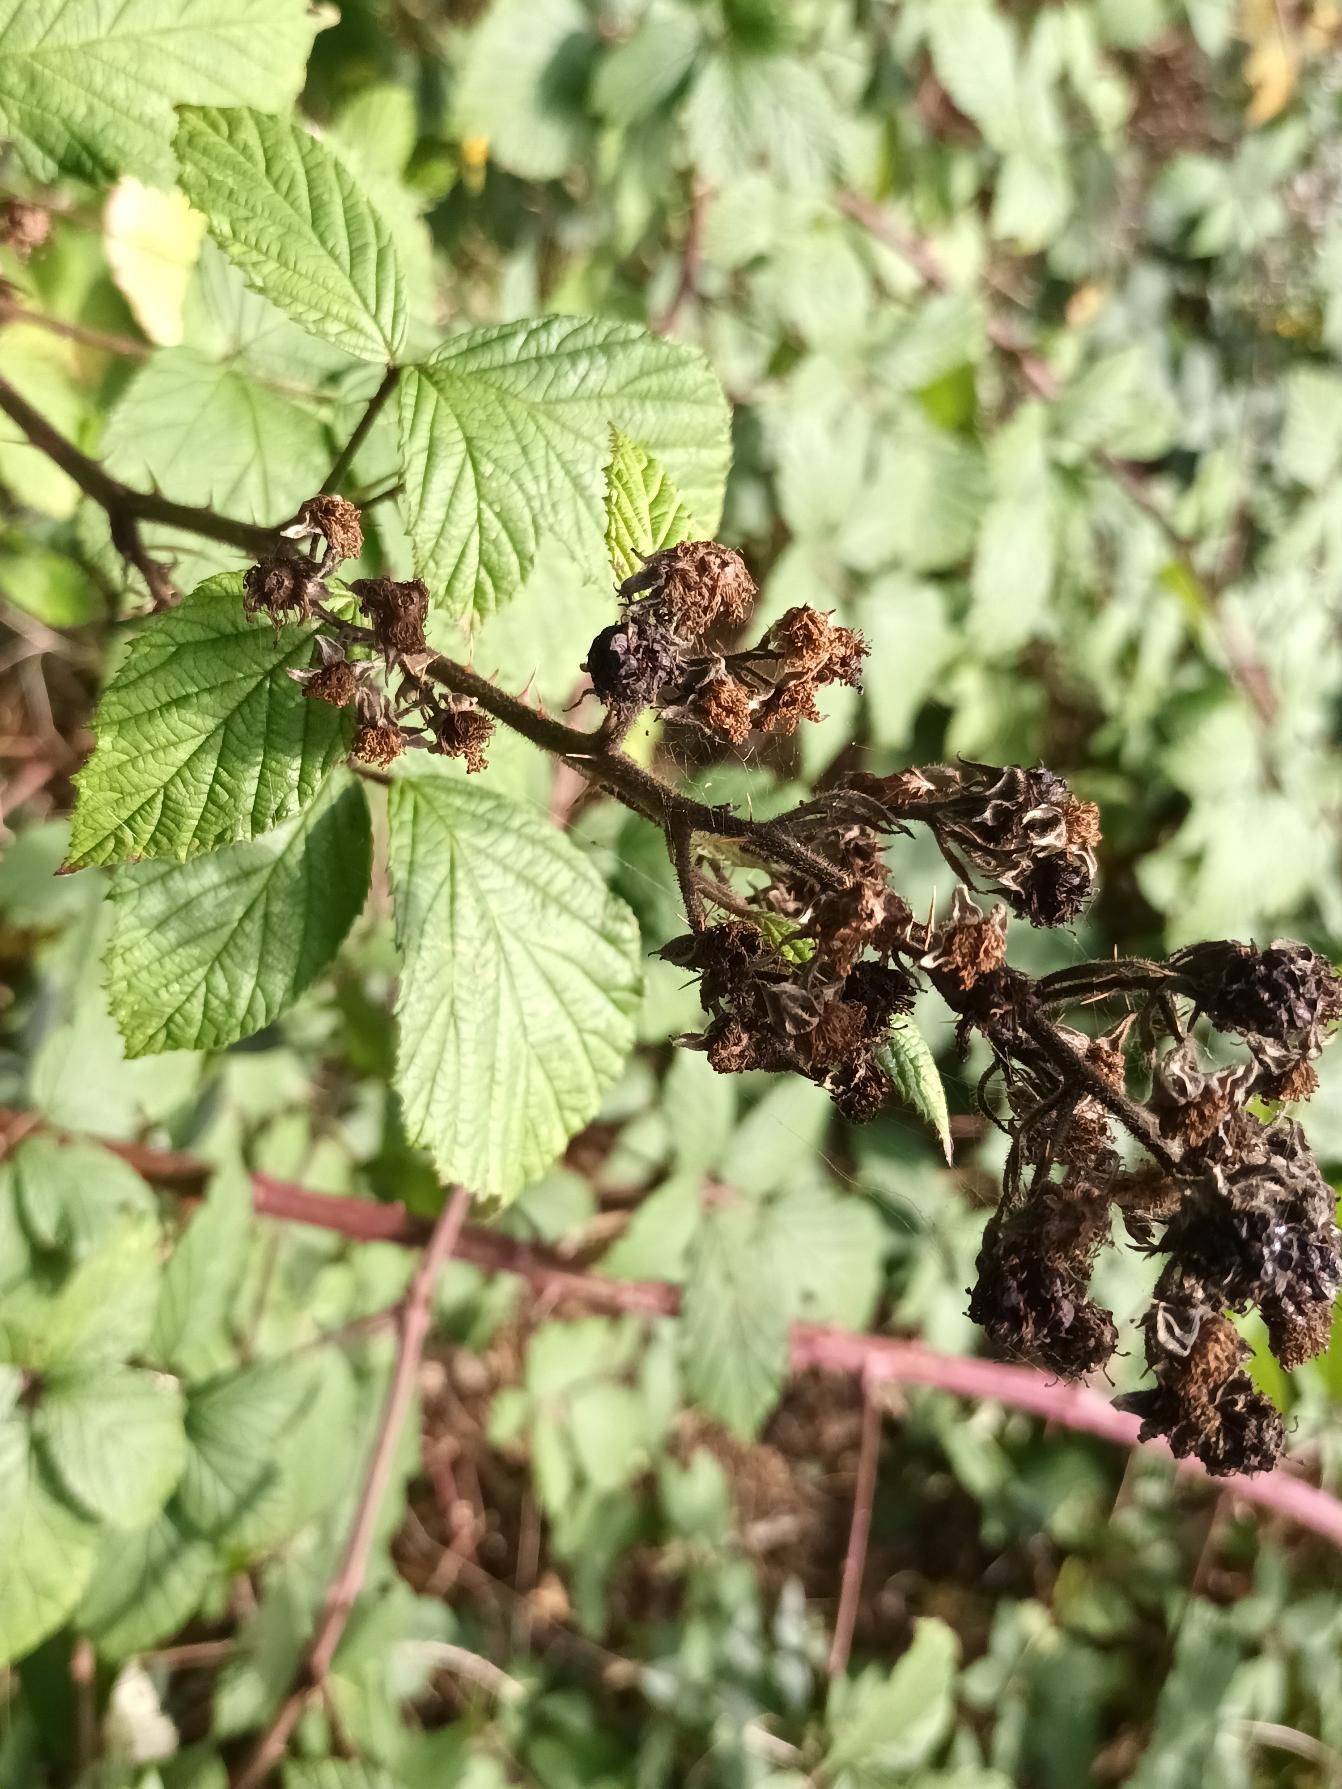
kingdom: Plantae
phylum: Tracheophyta
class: Magnoliopsida
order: Rosales
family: Rosaceae
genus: Rubus
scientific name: Rubus radula
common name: Rasperu brombær
